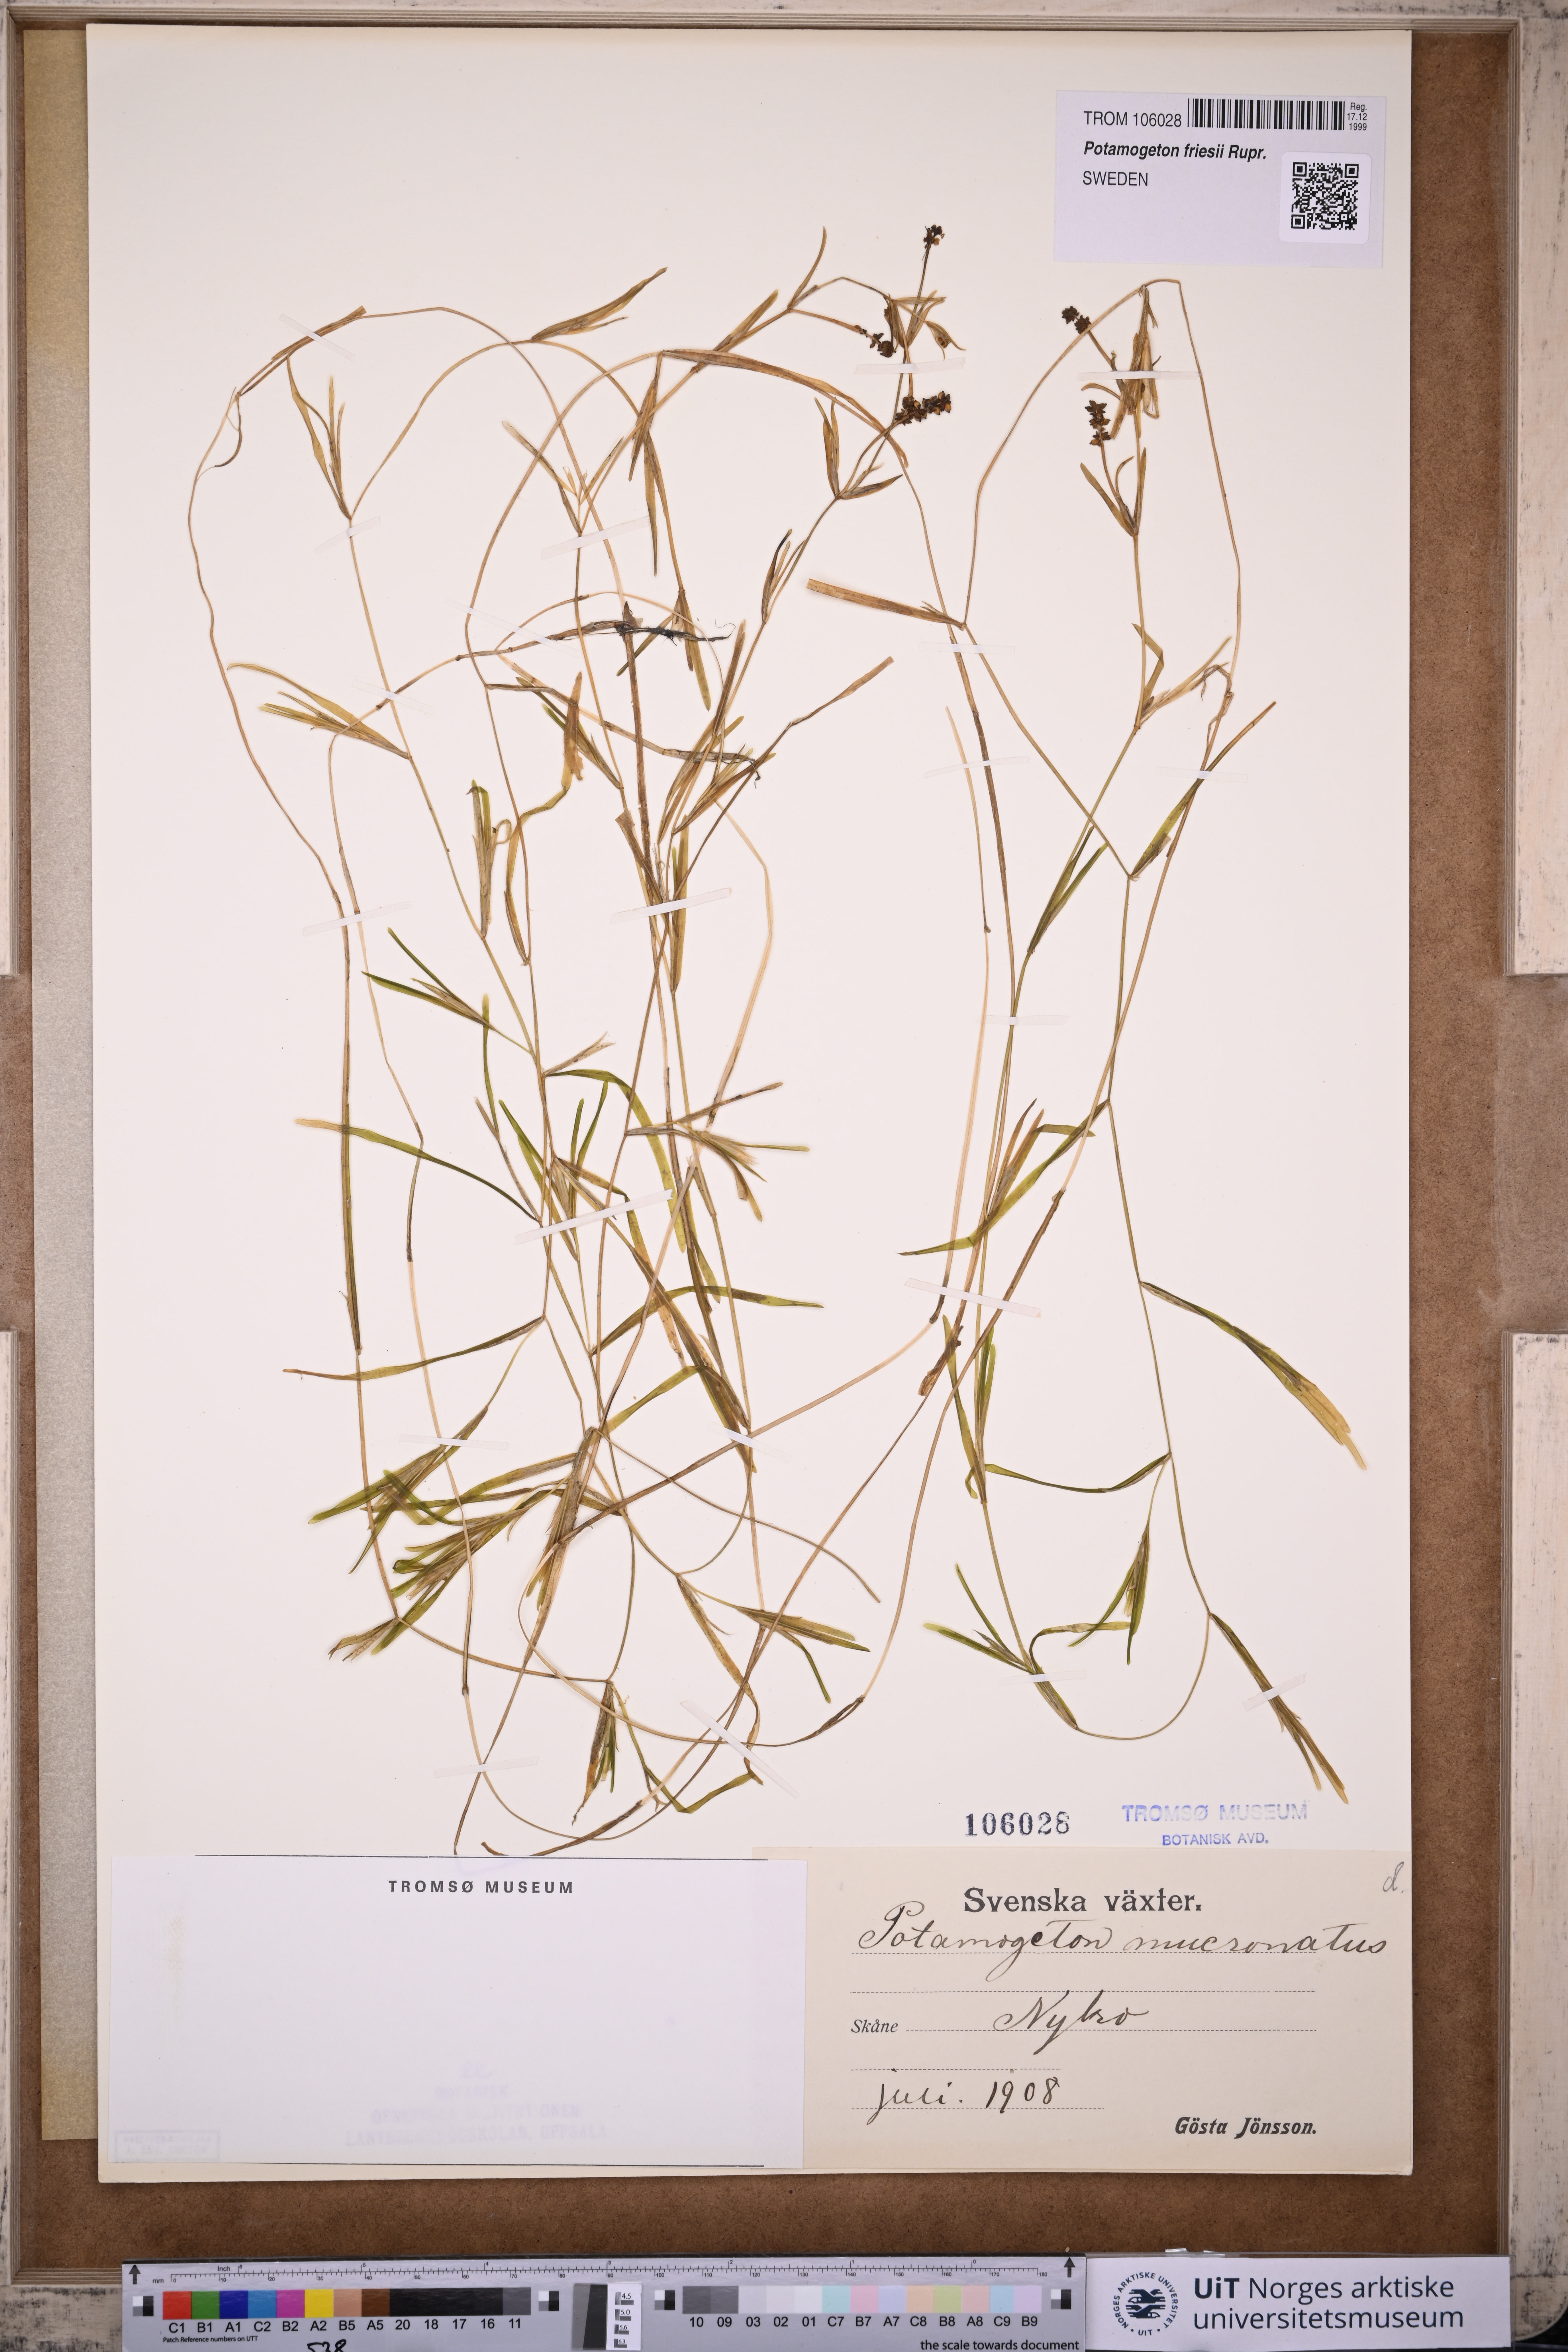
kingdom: Plantae
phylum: Tracheophyta
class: Liliopsida
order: Alismatales
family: Potamogetonaceae
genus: Potamogeton
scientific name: Potamogeton friesii
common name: Flat-stalked pondweed
